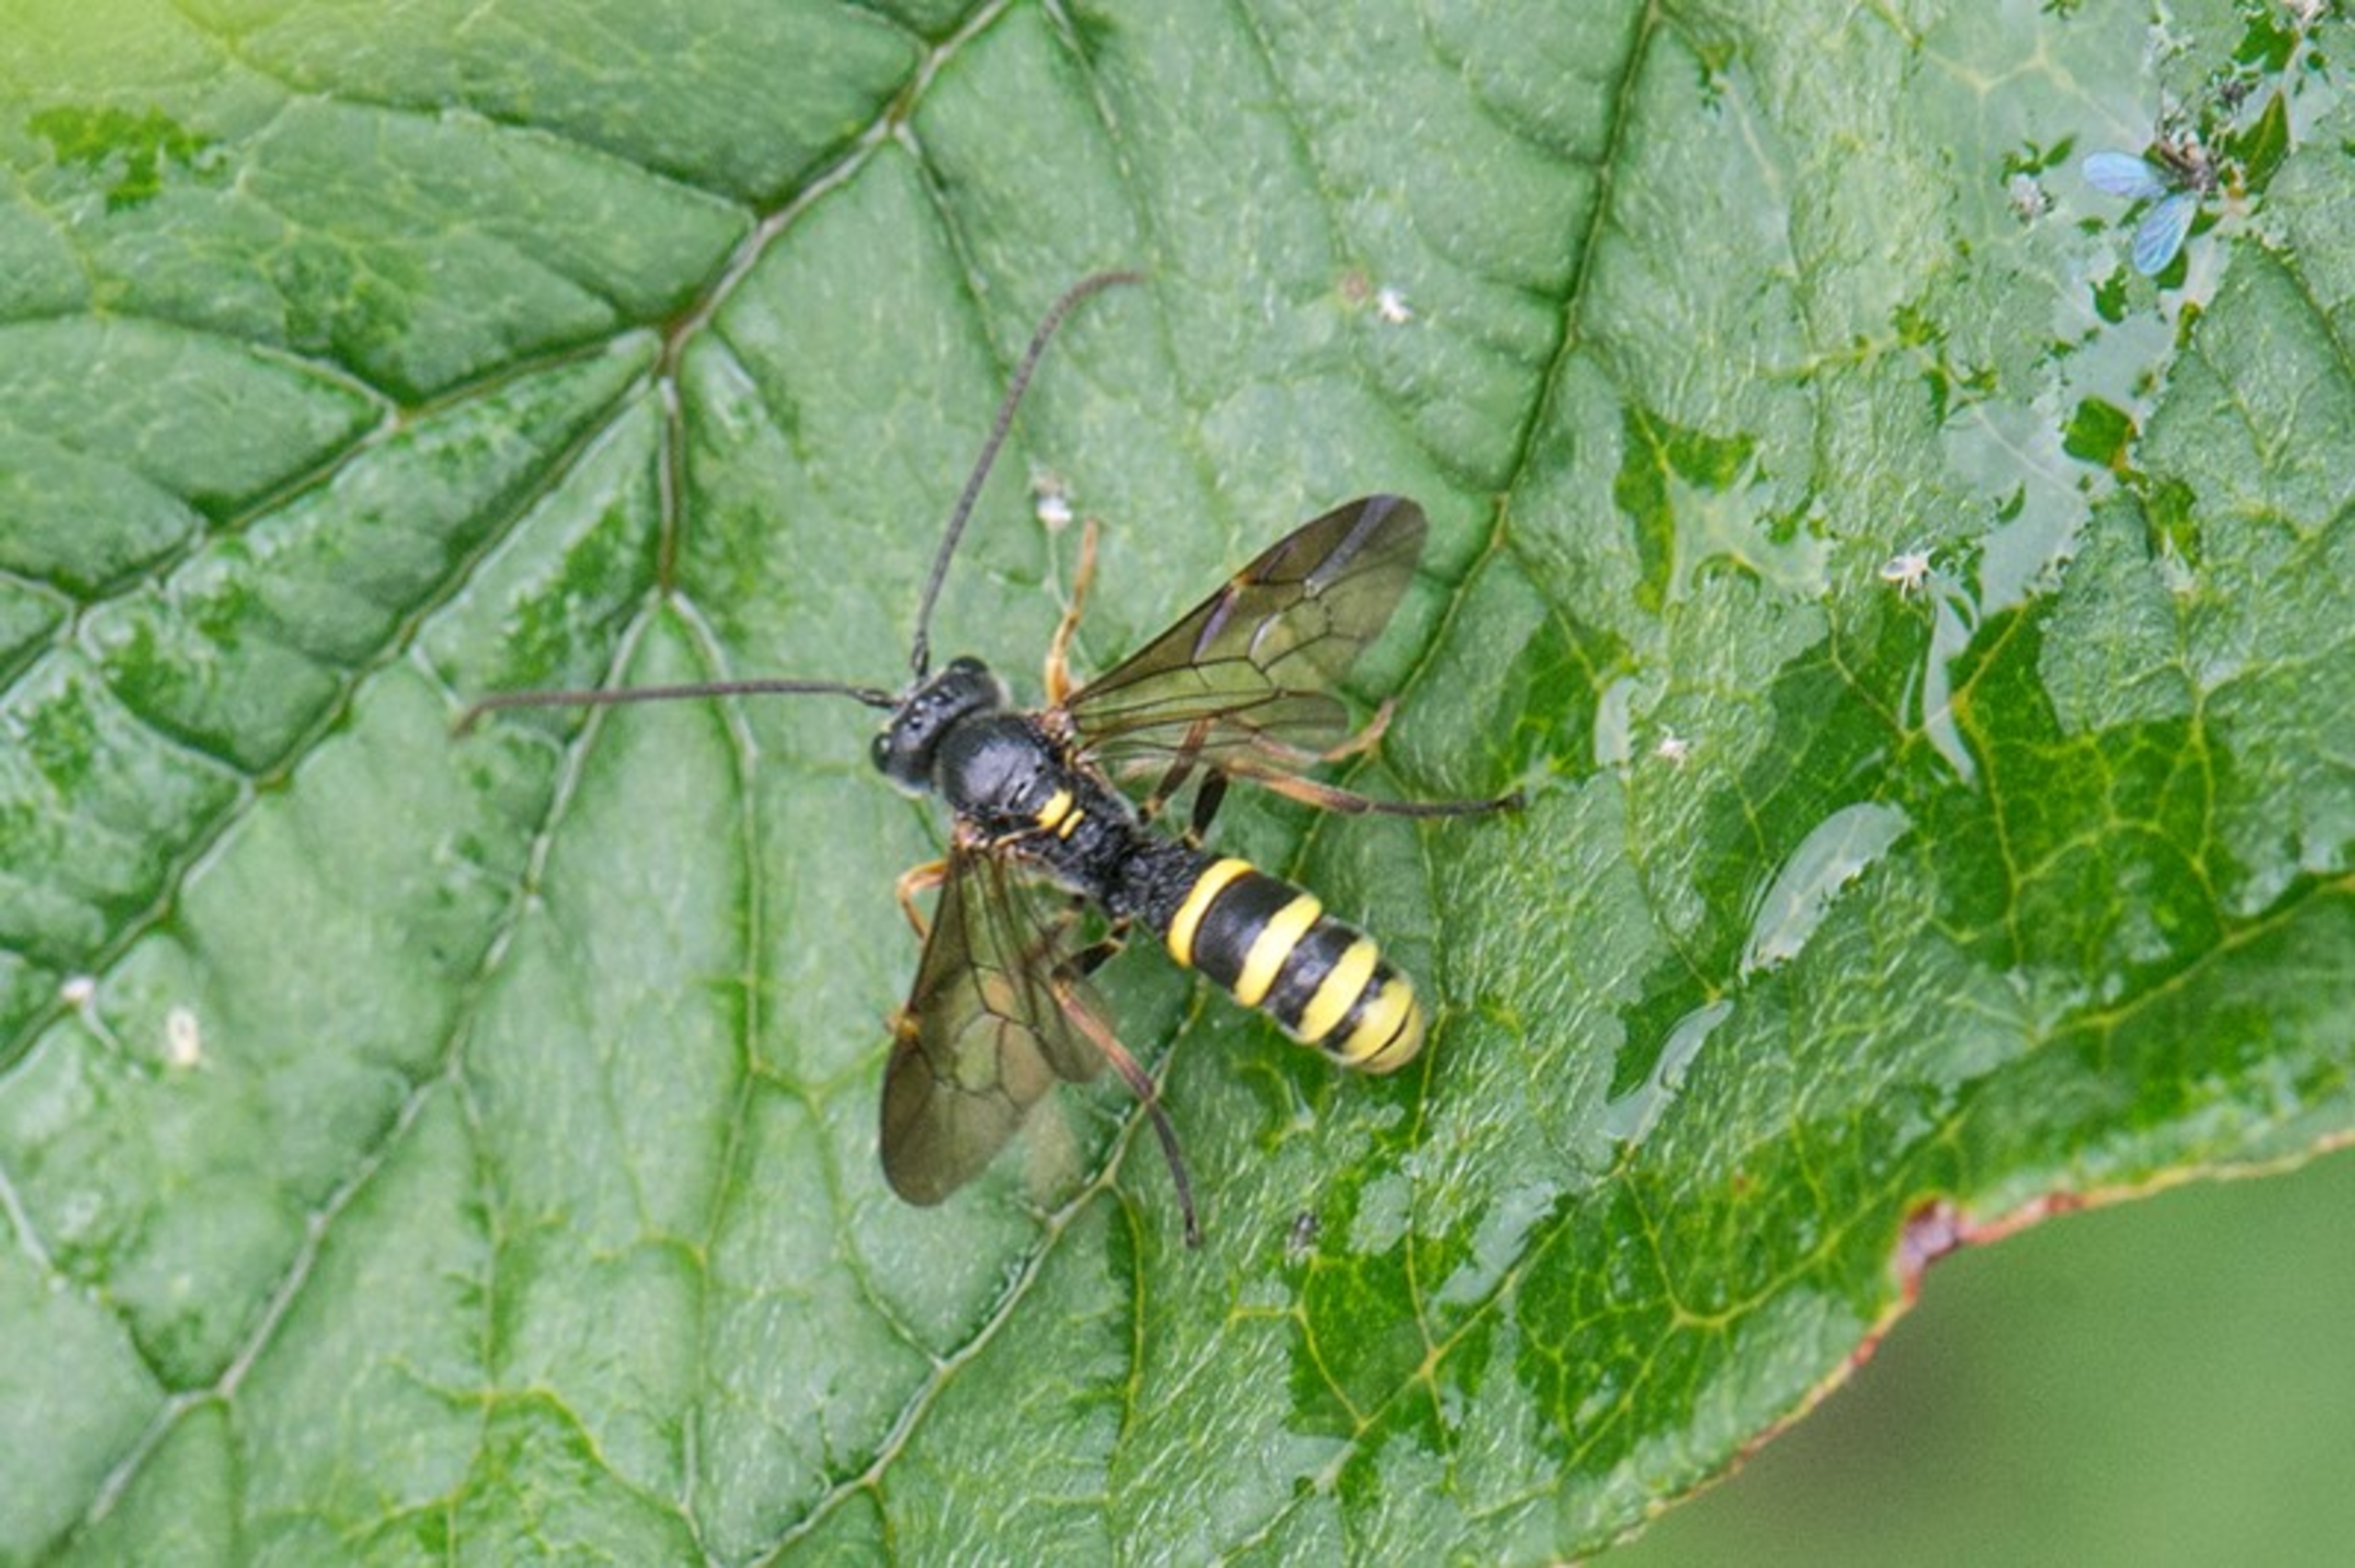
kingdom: Animalia
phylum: Arthropoda
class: Insecta
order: Hymenoptera
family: Ichneumonidae
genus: Excavarus
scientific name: Excavarus apiarius
